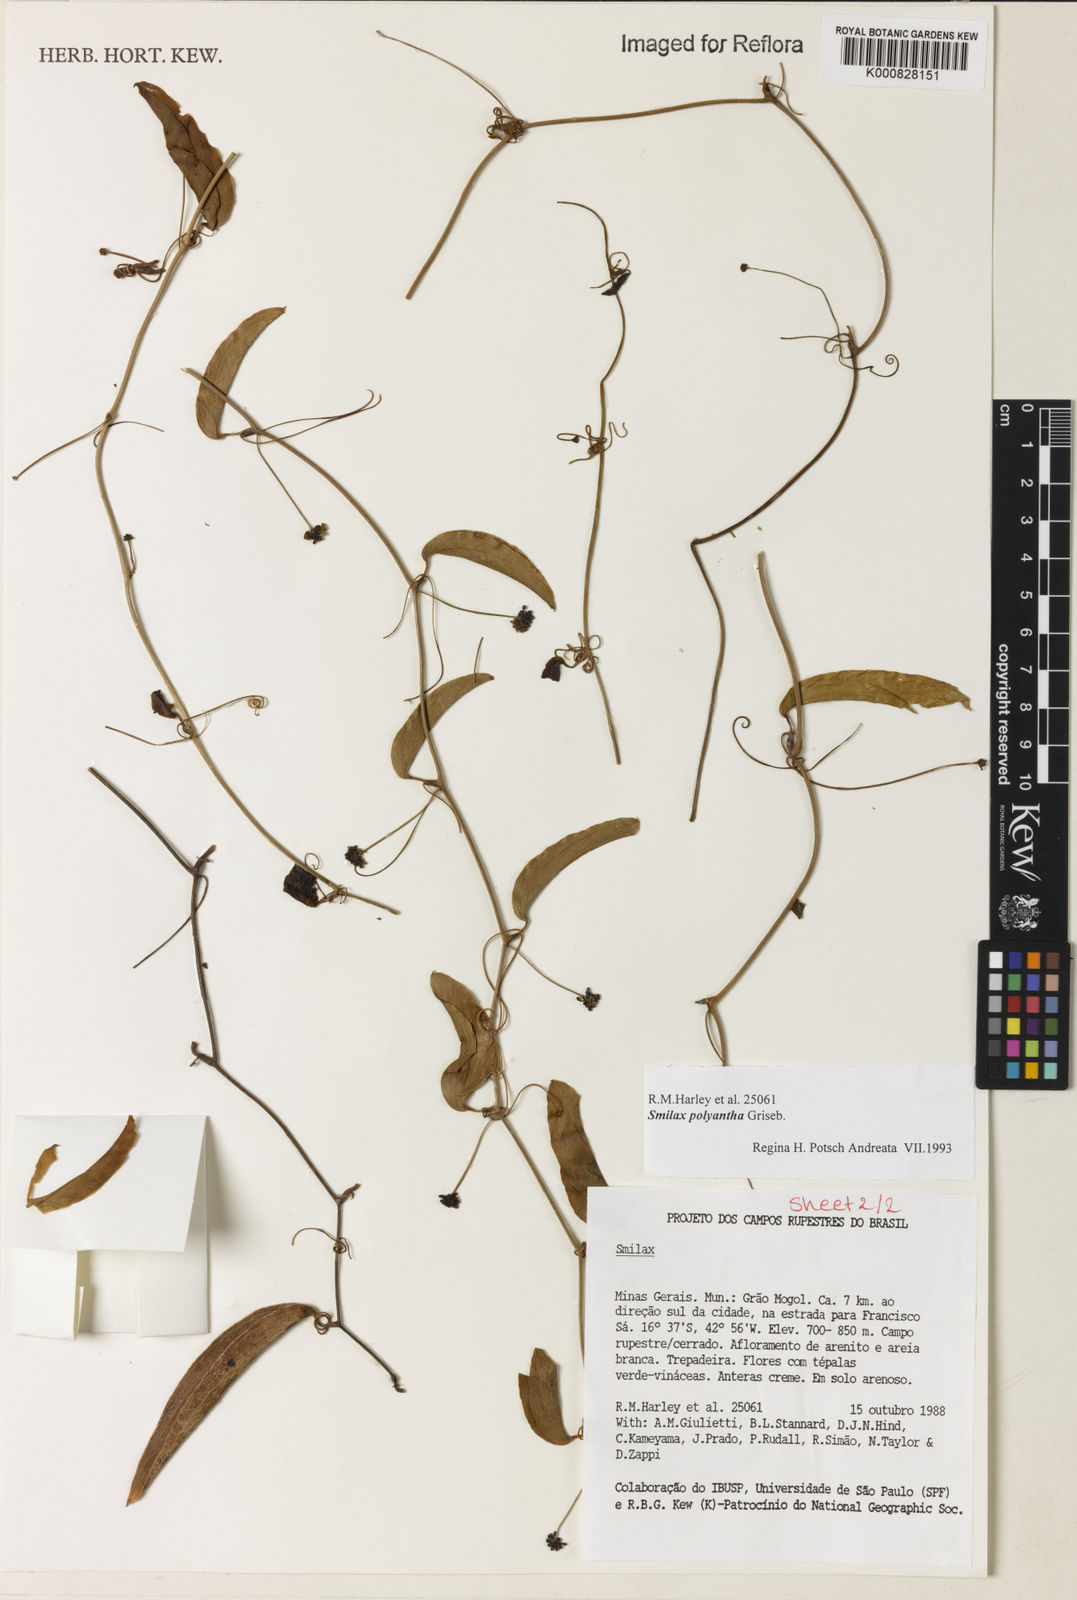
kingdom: Plantae
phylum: Tracheophyta
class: Liliopsida
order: Liliales
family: Smilacaceae
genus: Smilax
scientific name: Smilax minarum
